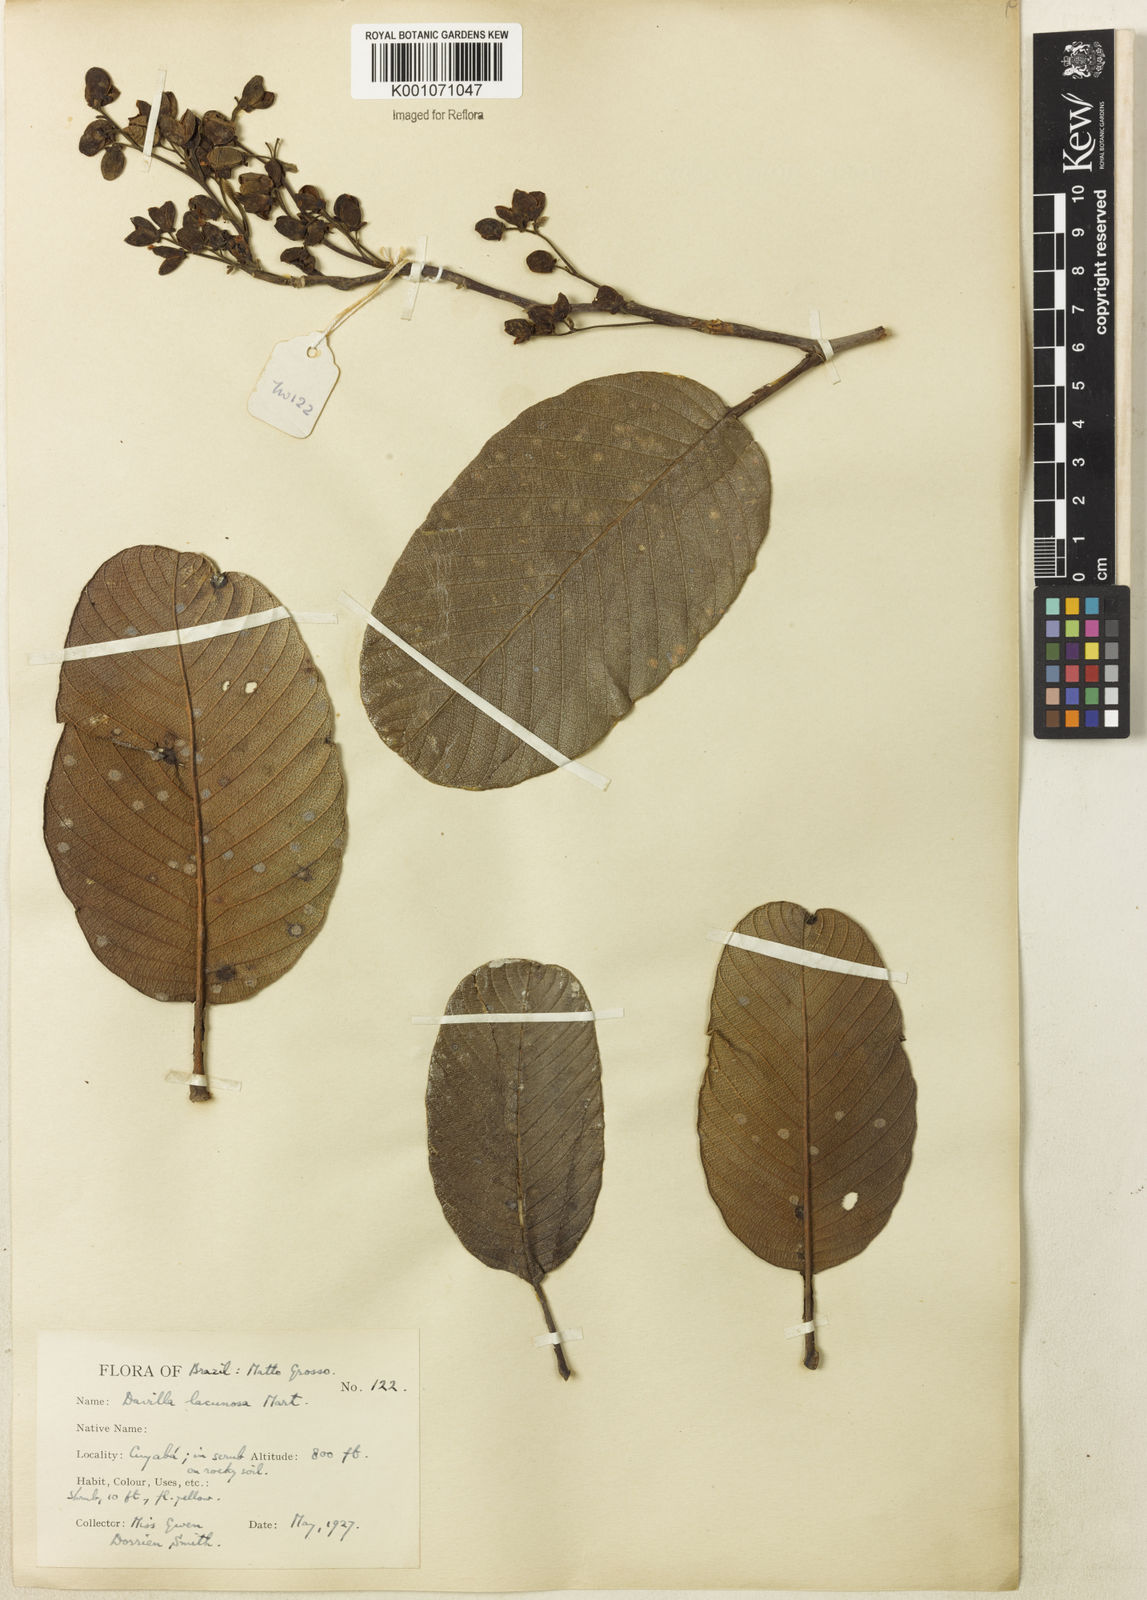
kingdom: Plantae
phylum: Tracheophyta
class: Magnoliopsida
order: Dilleniales
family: Dilleniaceae
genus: Davilla
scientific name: Davilla lacunosa
